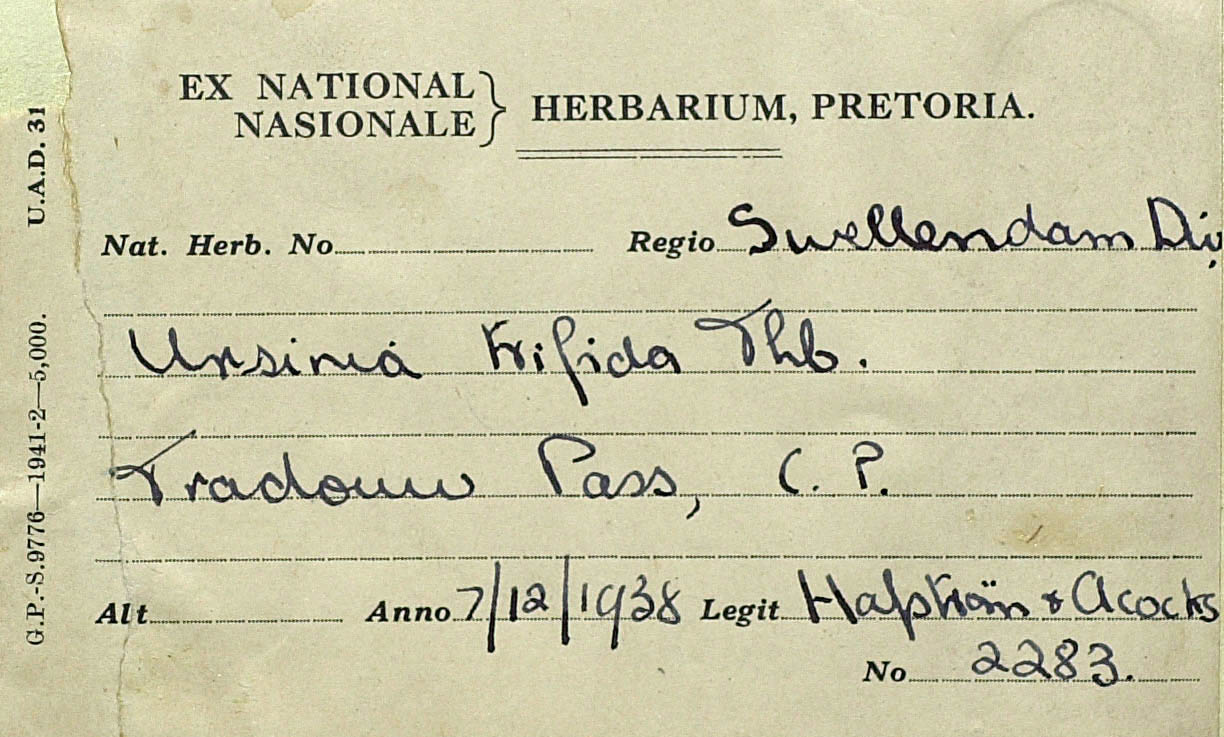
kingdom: Plantae
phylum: Tracheophyta
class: Magnoliopsida
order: Asterales
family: Asteraceae
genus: Ursinia
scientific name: Ursinia trifida
